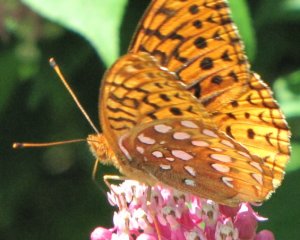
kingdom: Animalia
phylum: Arthropoda
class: Insecta
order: Lepidoptera
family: Nymphalidae
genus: Speyeria
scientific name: Speyeria cybele
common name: Great Spangled Fritillary
